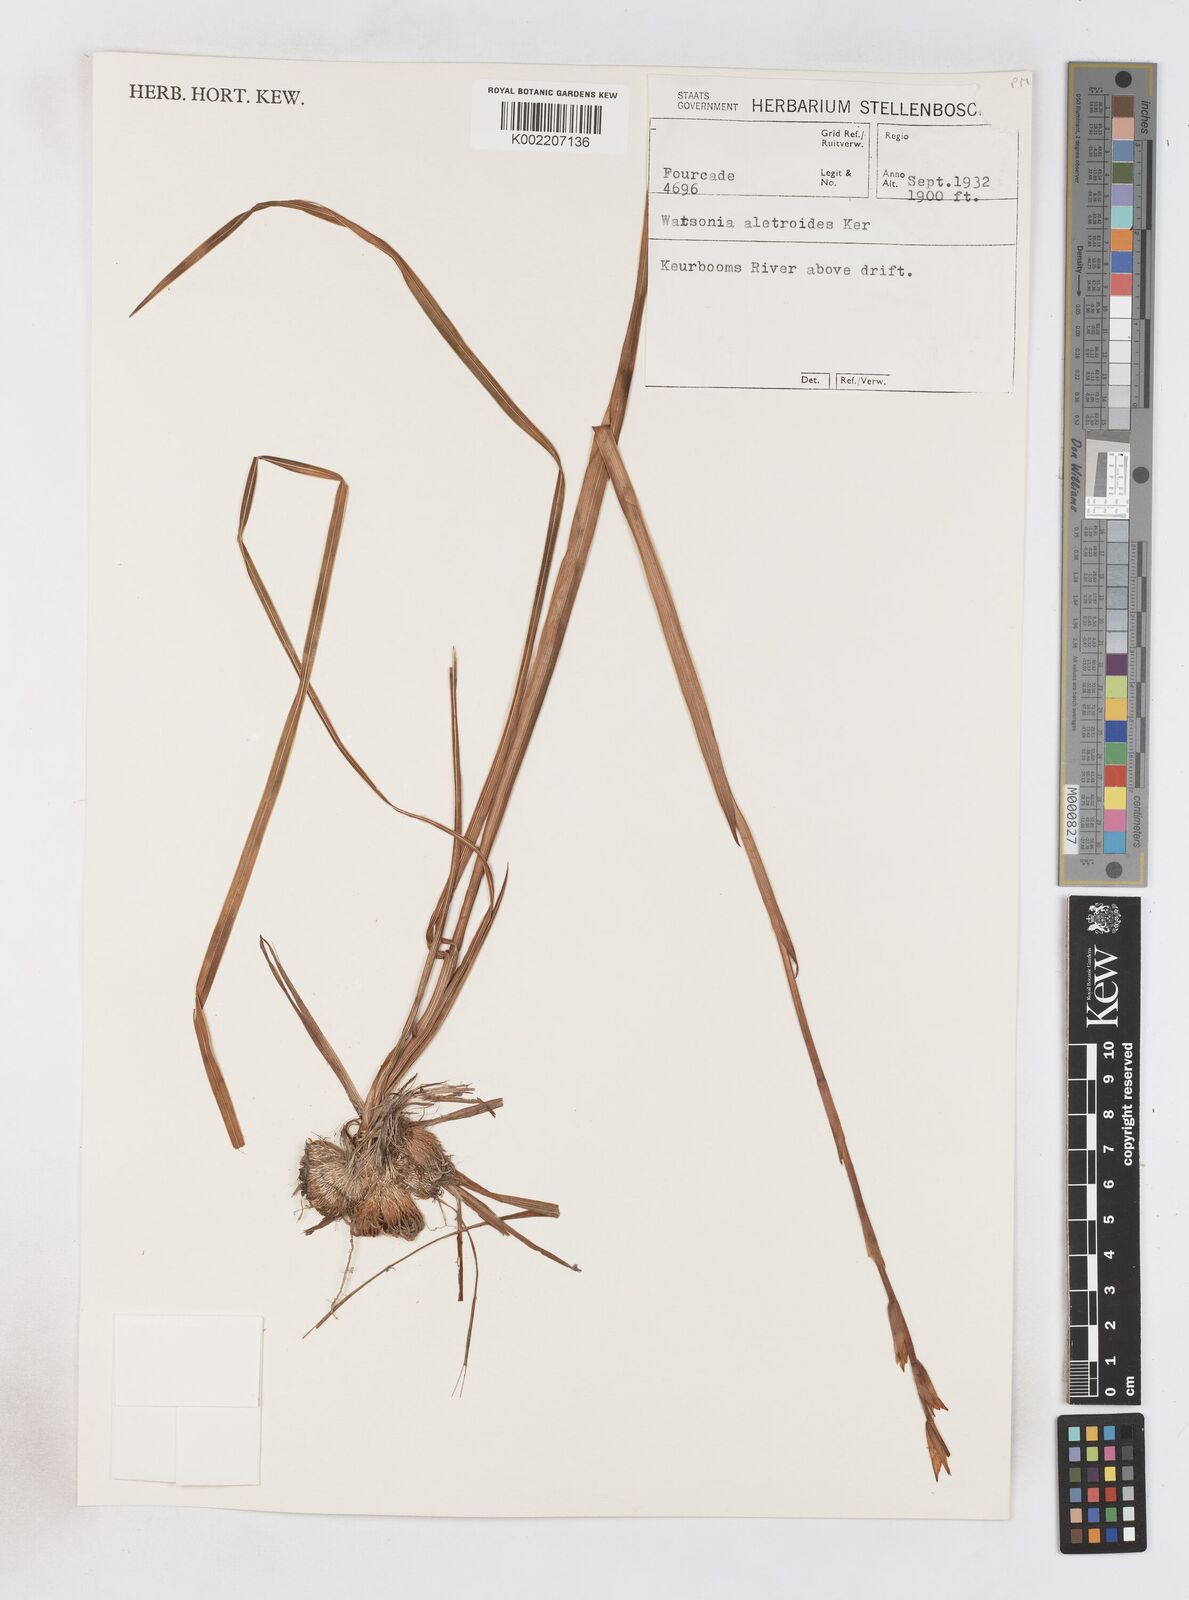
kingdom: Plantae
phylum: Tracheophyta
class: Liliopsida
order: Asparagales
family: Iridaceae
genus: Watsonia
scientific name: Watsonia aletroides
